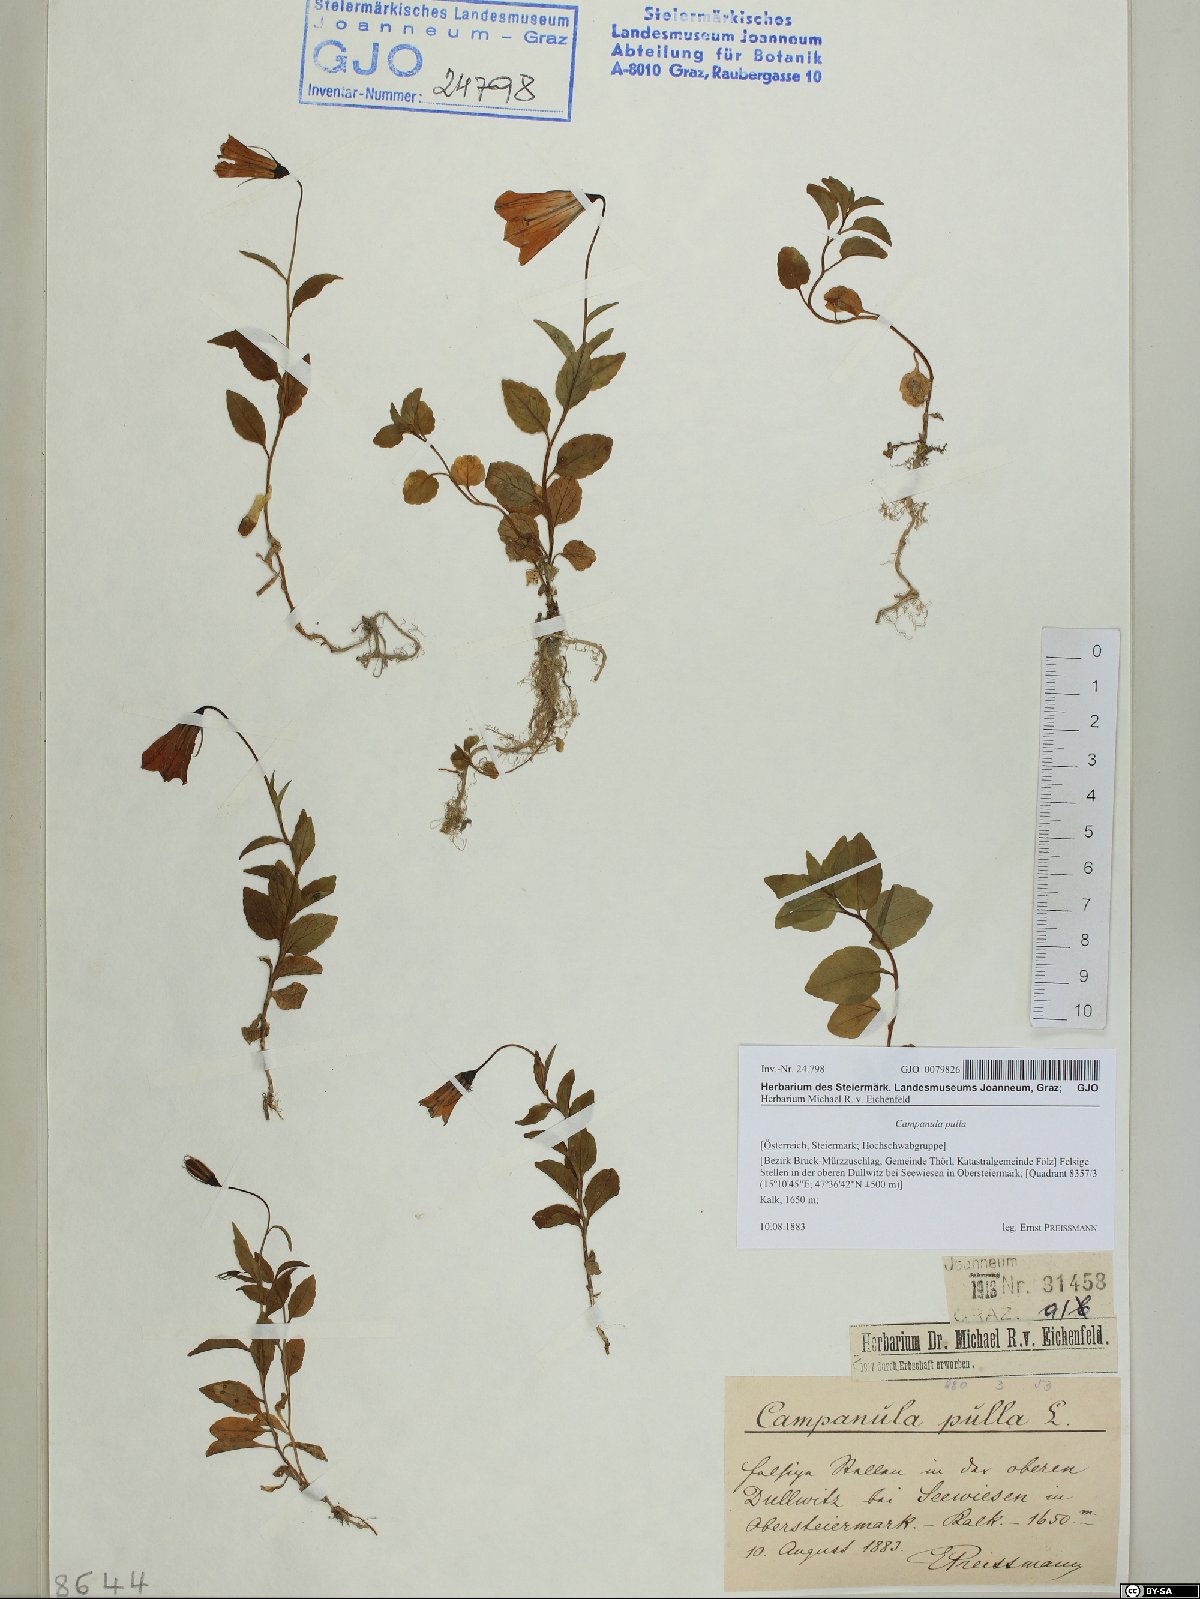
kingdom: Plantae
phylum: Tracheophyta
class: Magnoliopsida
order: Asterales
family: Campanulaceae
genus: Campanula
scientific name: Campanula pulla
